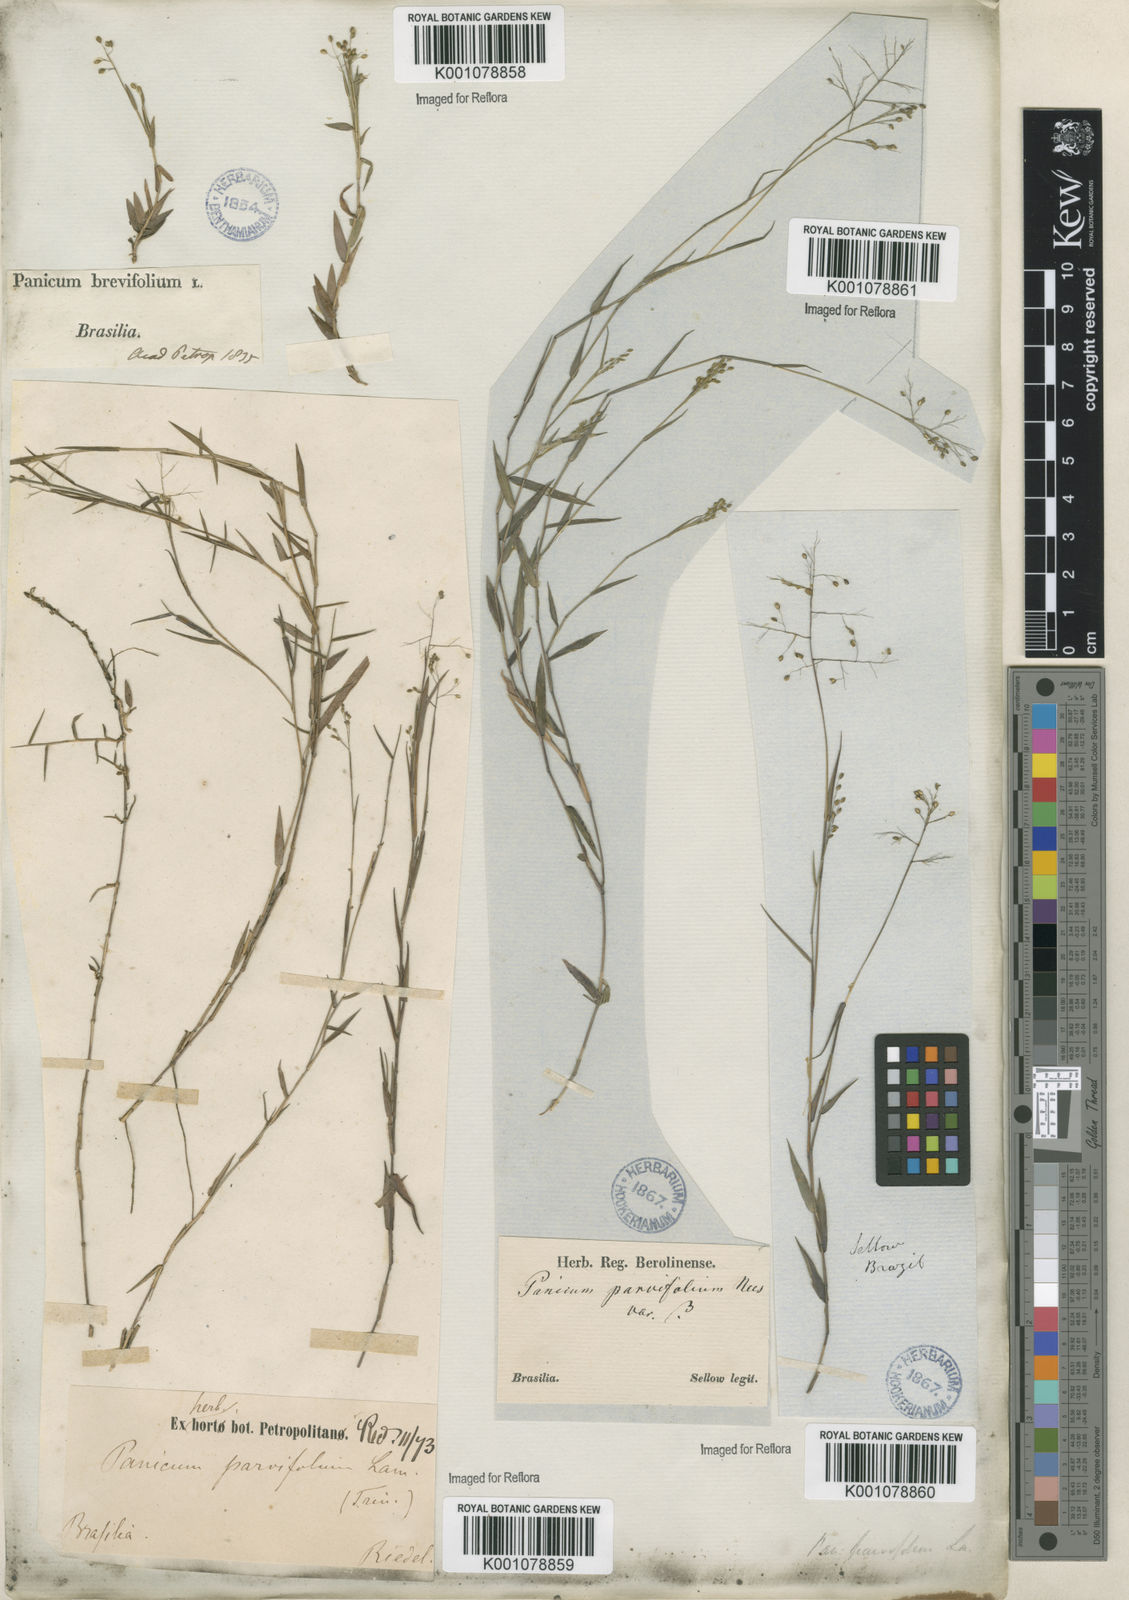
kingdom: Plantae
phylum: Tracheophyta
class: Liliopsida
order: Poales
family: Poaceae
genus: Trichanthecium
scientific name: Trichanthecium parvifolium
